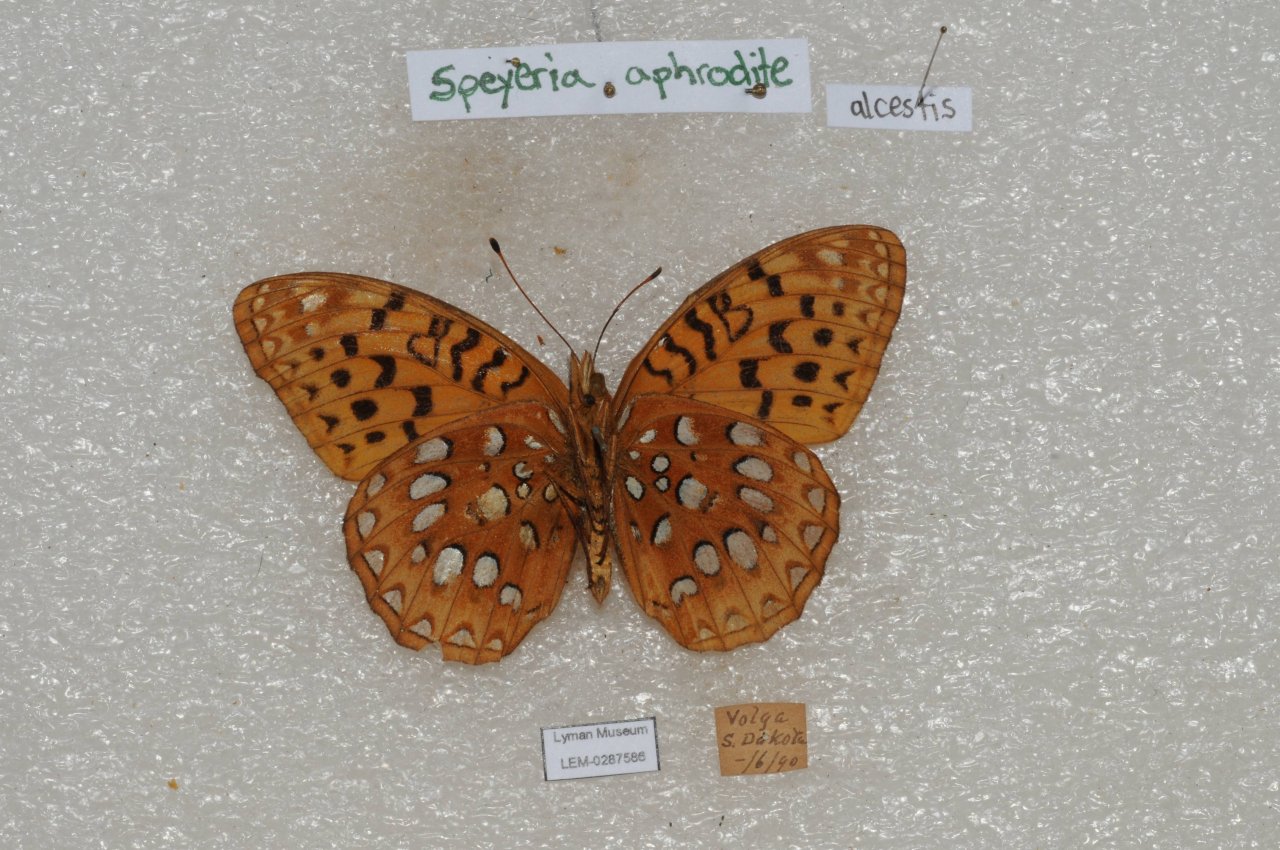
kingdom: Animalia
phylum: Arthropoda
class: Insecta
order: Lepidoptera
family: Nymphalidae
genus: Speyeria
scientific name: Speyeria aphrodite
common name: Aphrodite Fritillary
